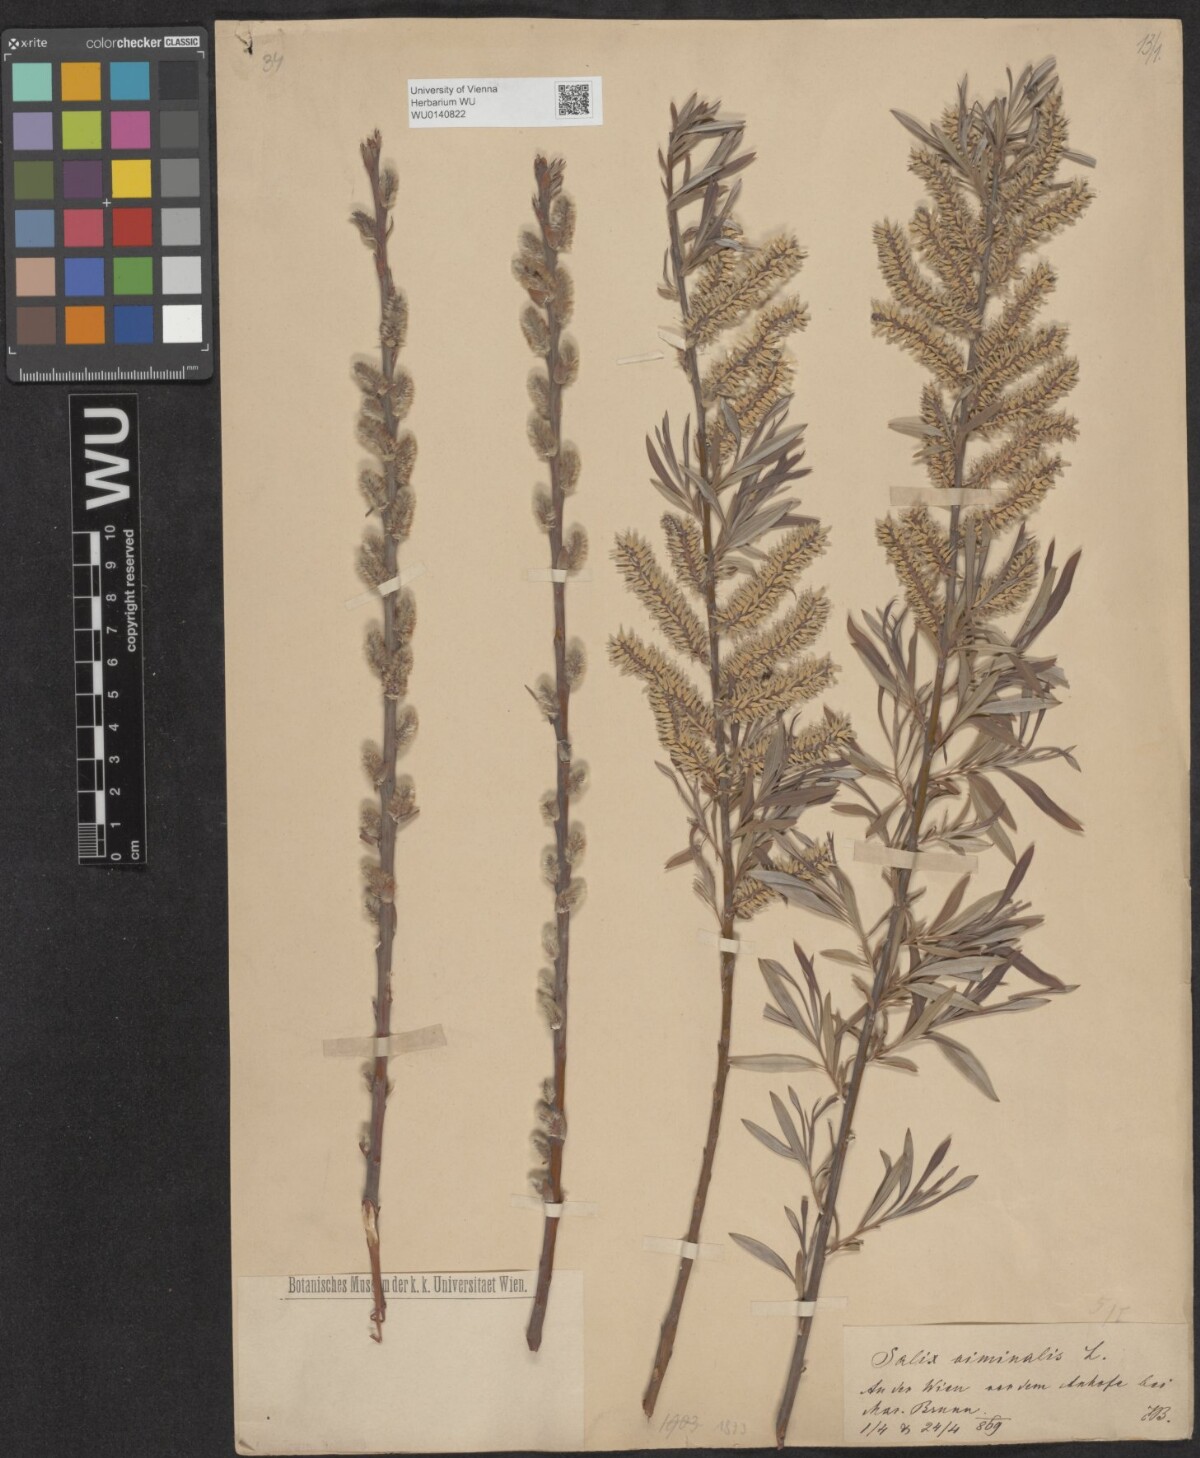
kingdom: Plantae
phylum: Tracheophyta
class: Magnoliopsida
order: Malpighiales
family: Salicaceae
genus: Salix
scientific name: Salix viminalis
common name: Osier
